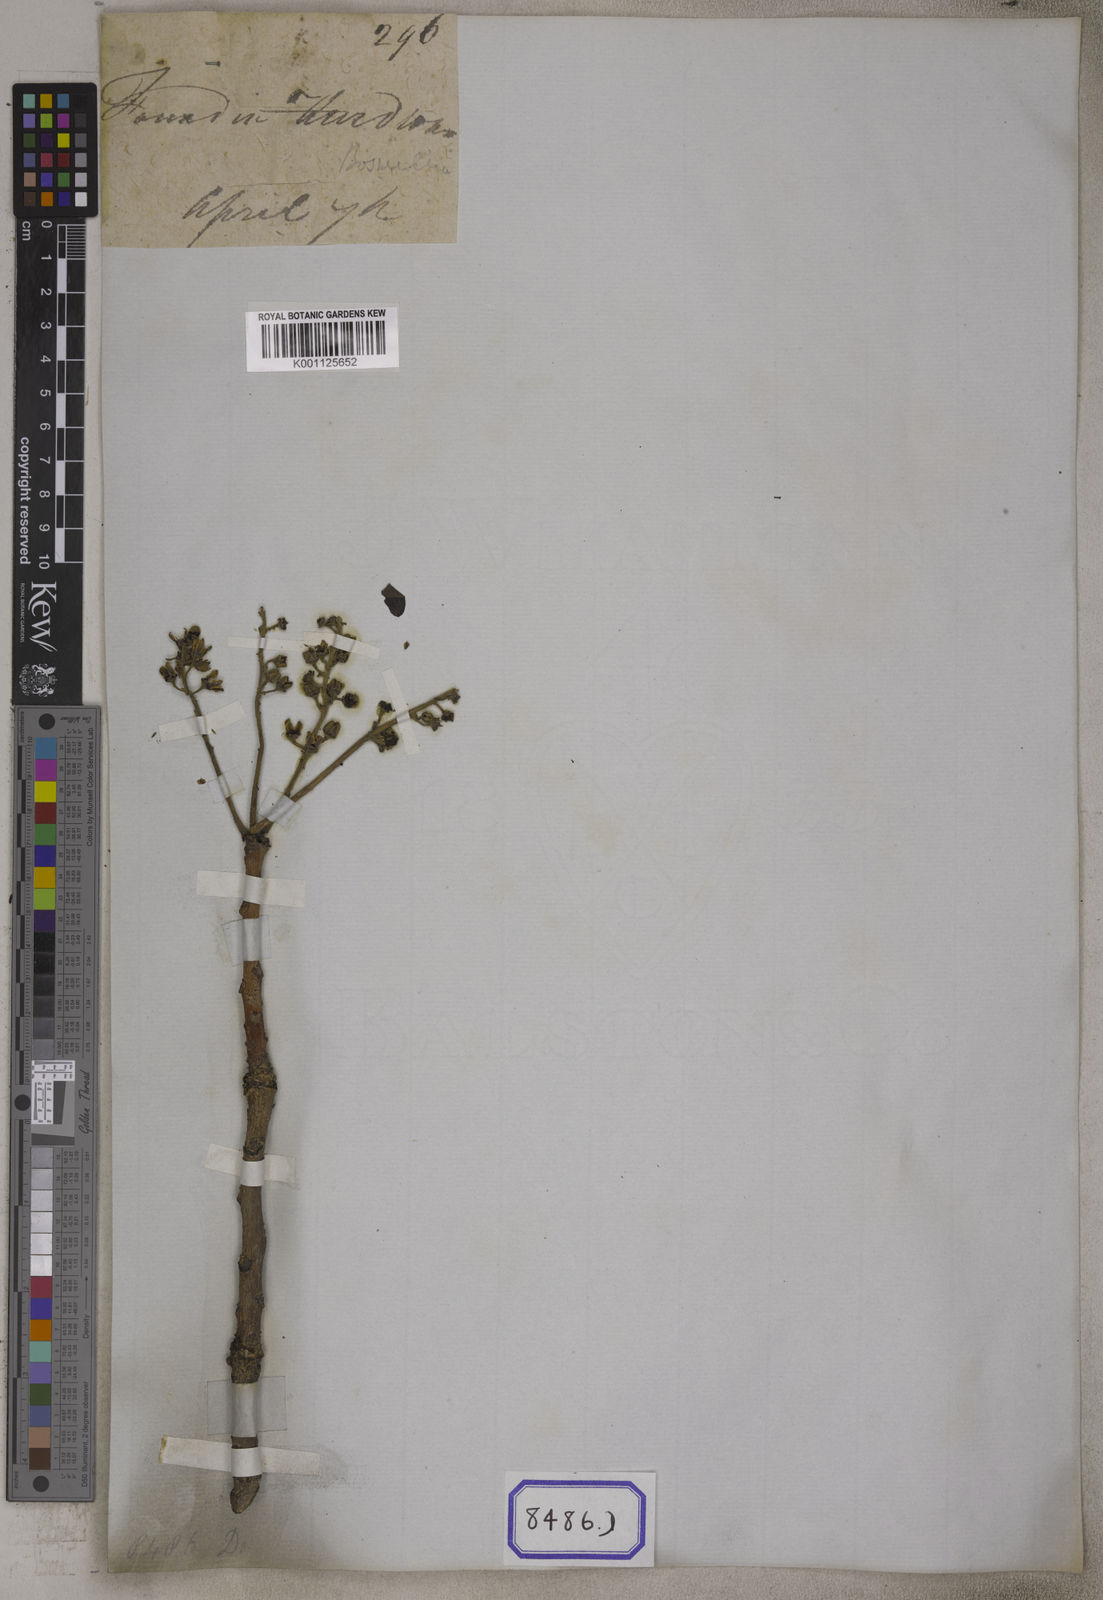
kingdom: Plantae
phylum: Tracheophyta
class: Magnoliopsida
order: Sapindales
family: Burseraceae
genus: Boswellia
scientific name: Boswellia serrata
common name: Boswellia
